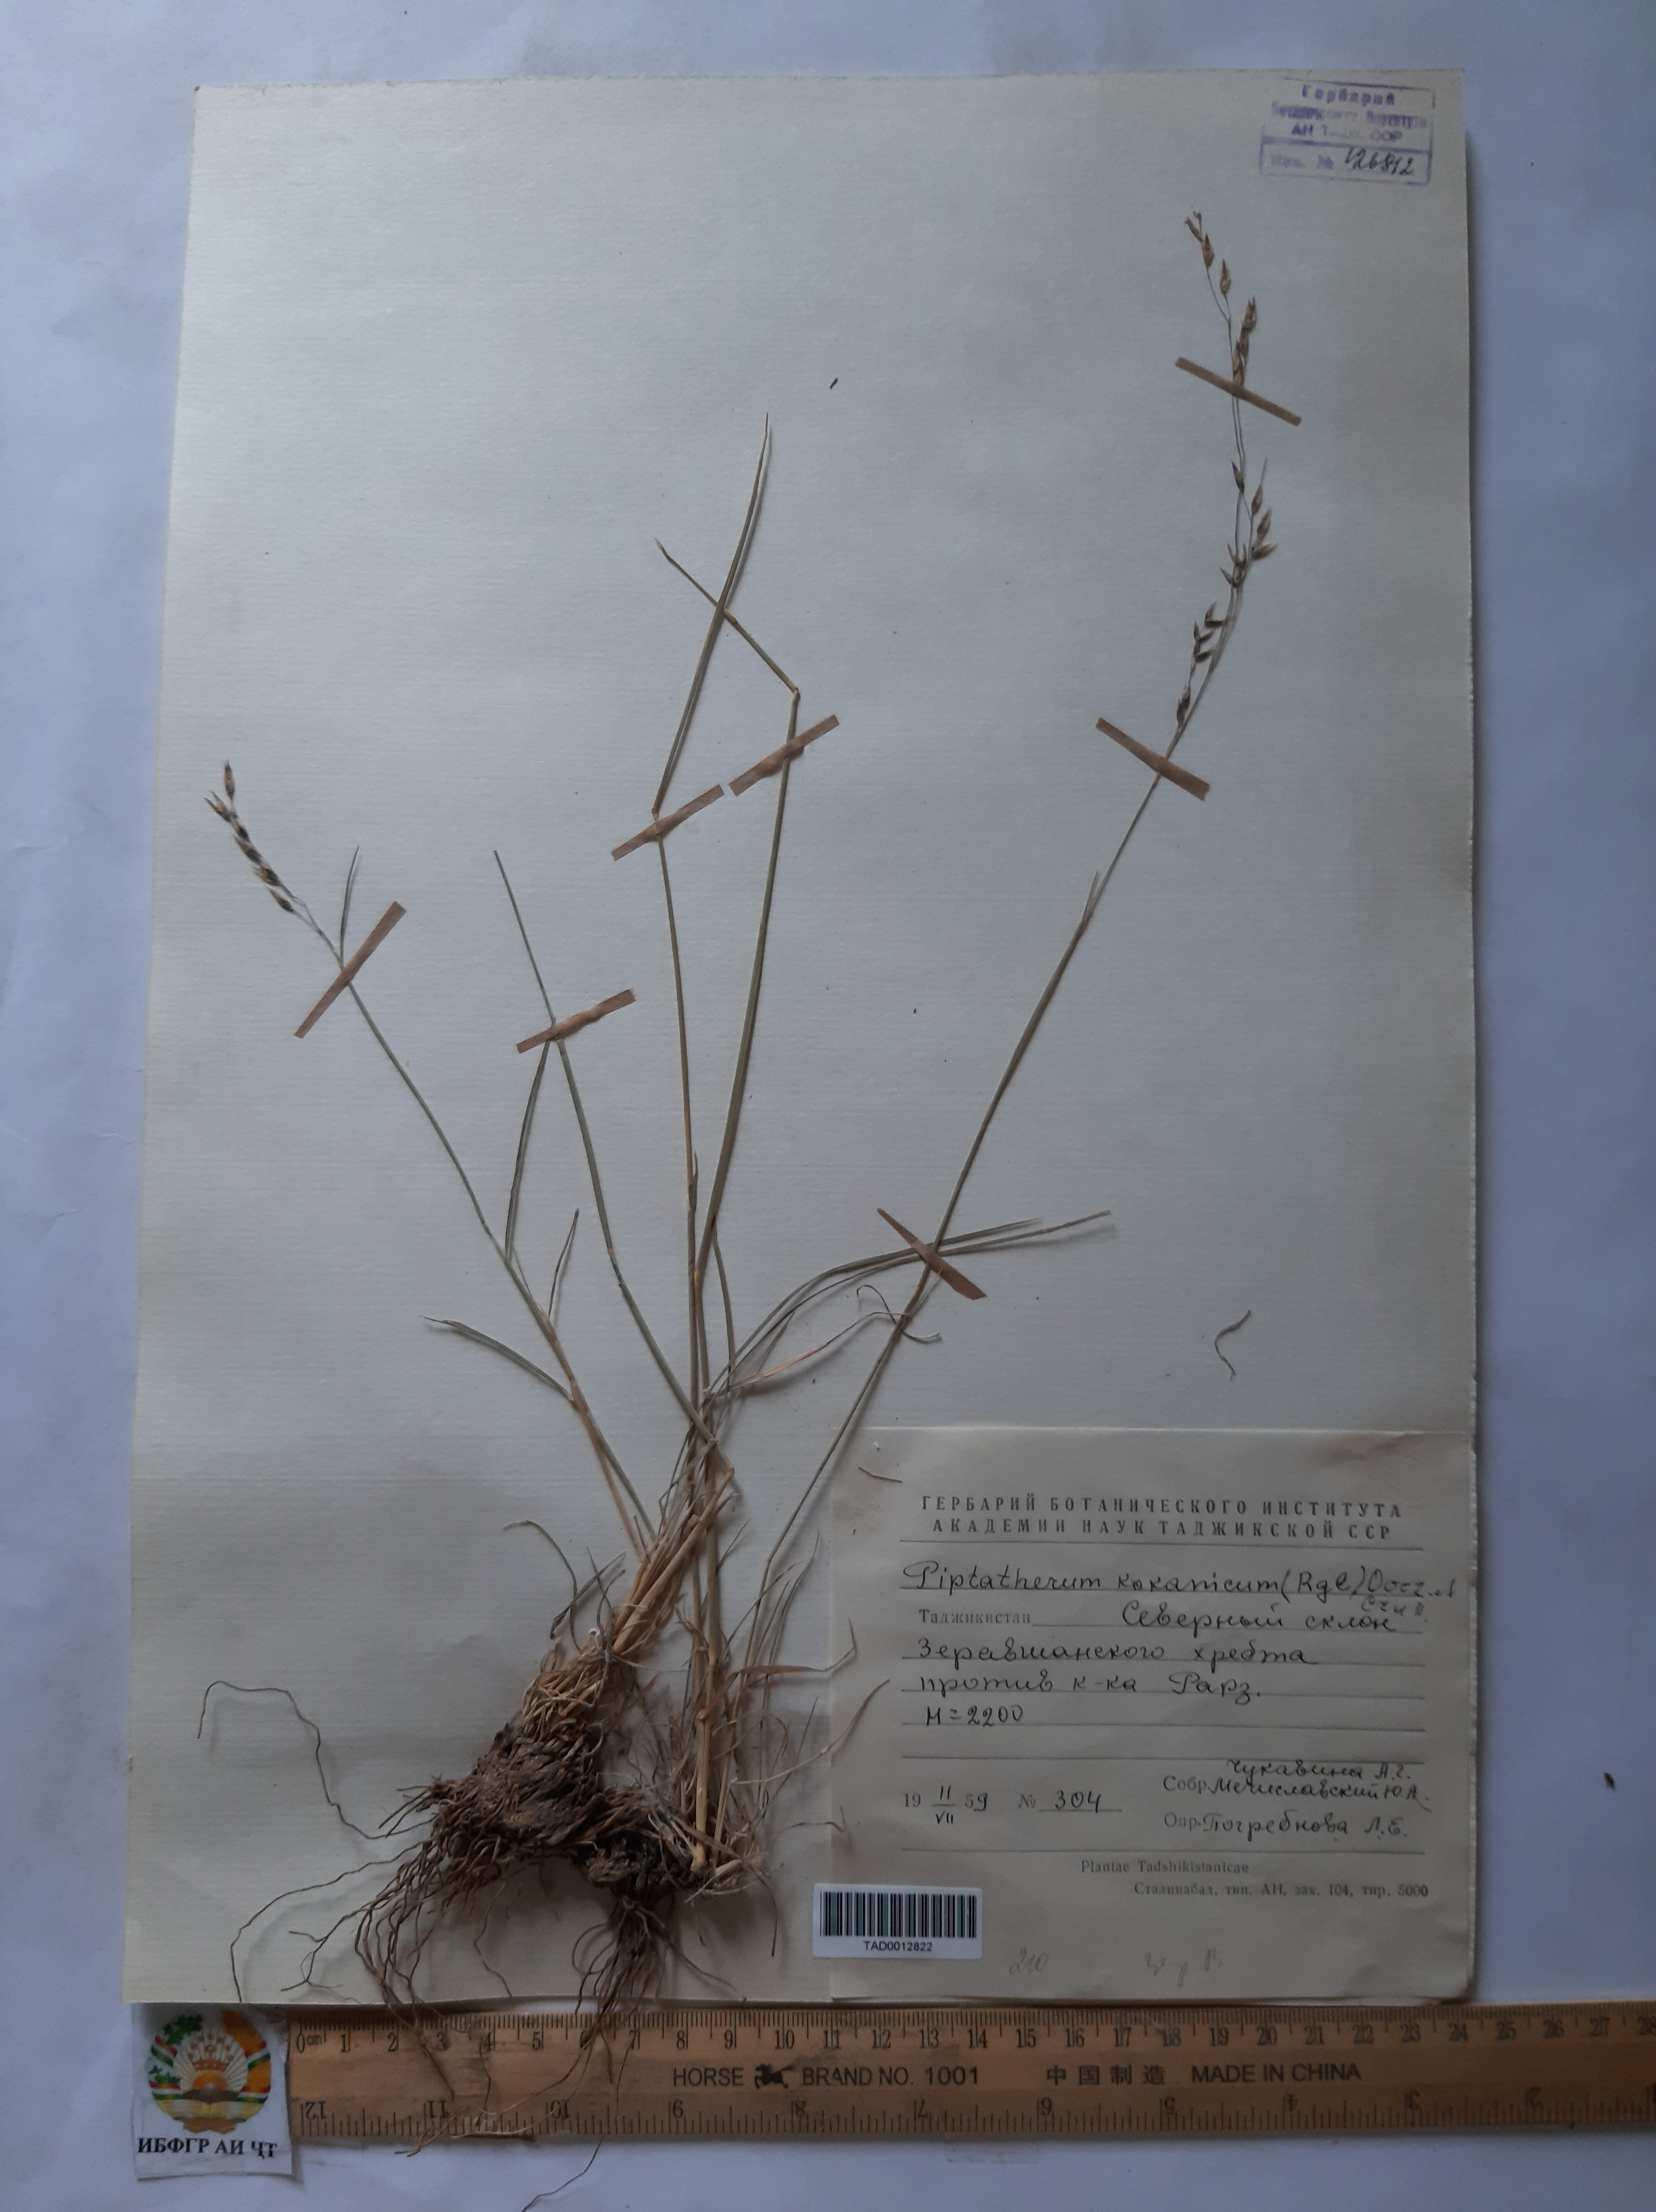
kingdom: Plantae
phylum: Tracheophyta
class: Liliopsida
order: Poales
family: Poaceae
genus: Piptatherum
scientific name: Piptatherum songaricum
